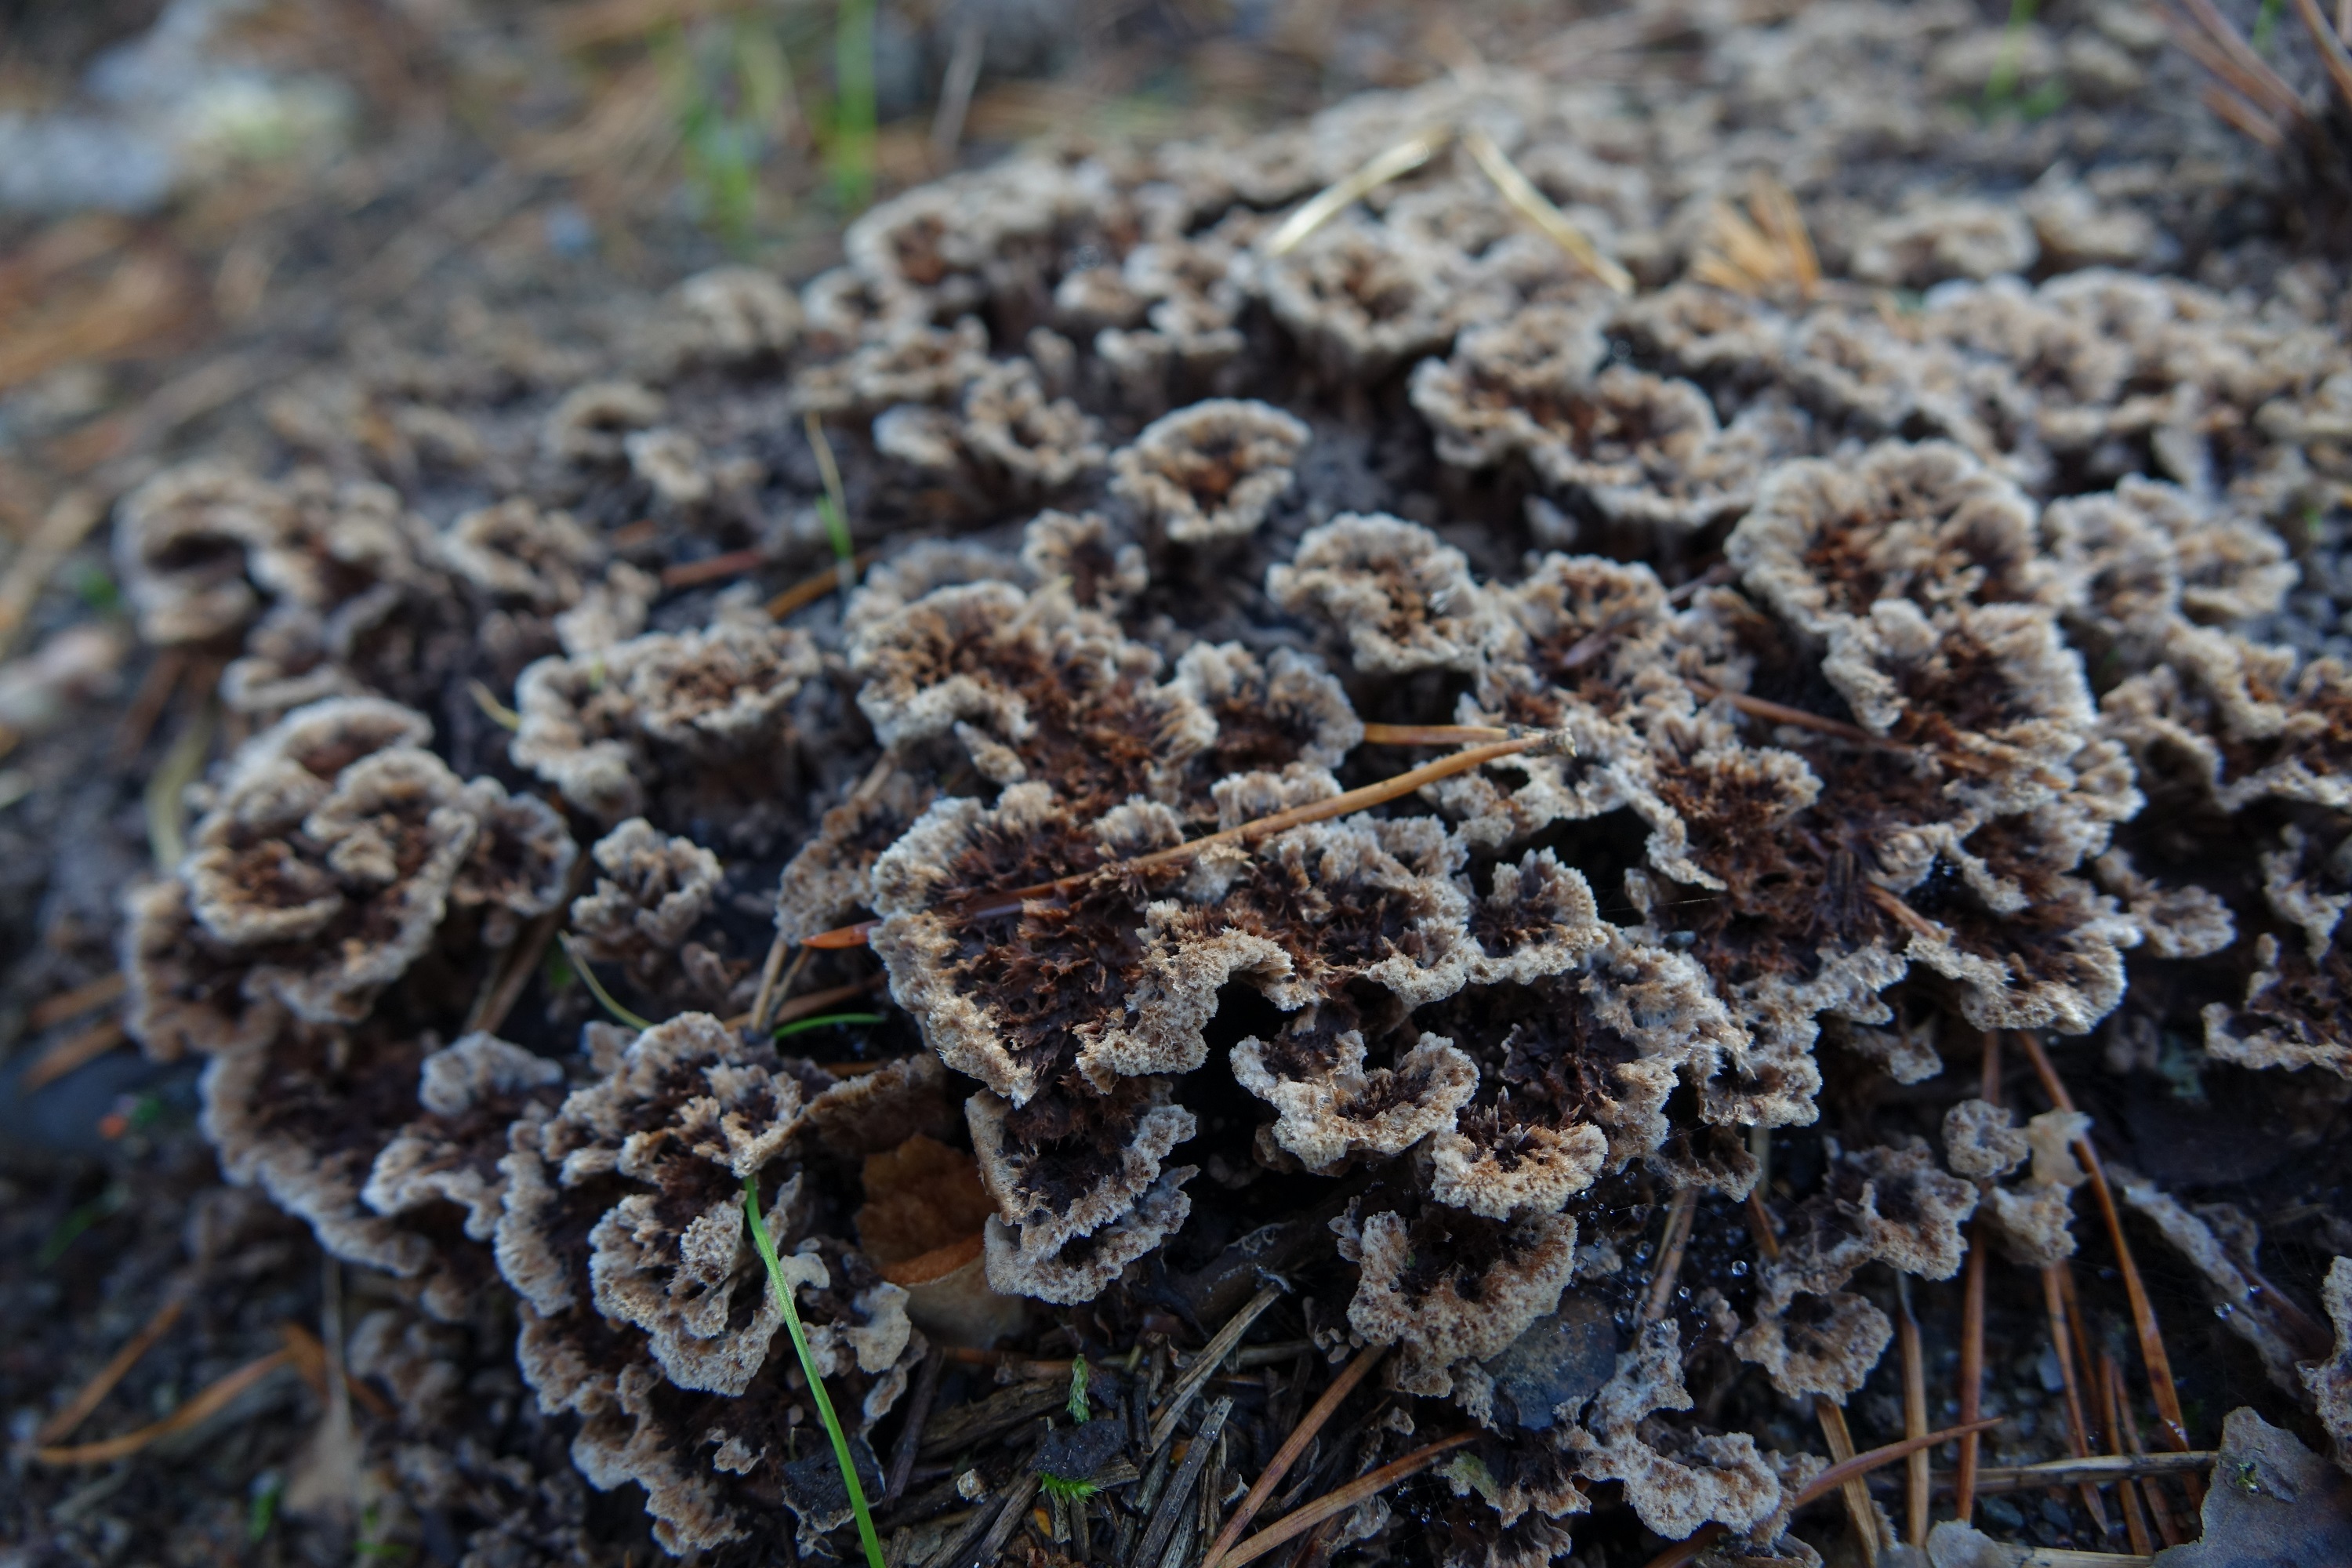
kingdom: Fungi
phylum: Basidiomycota
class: Agaricomycetes
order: Thelephorales
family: Thelephoraceae
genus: Thelephora
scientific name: Thelephora terrestris
